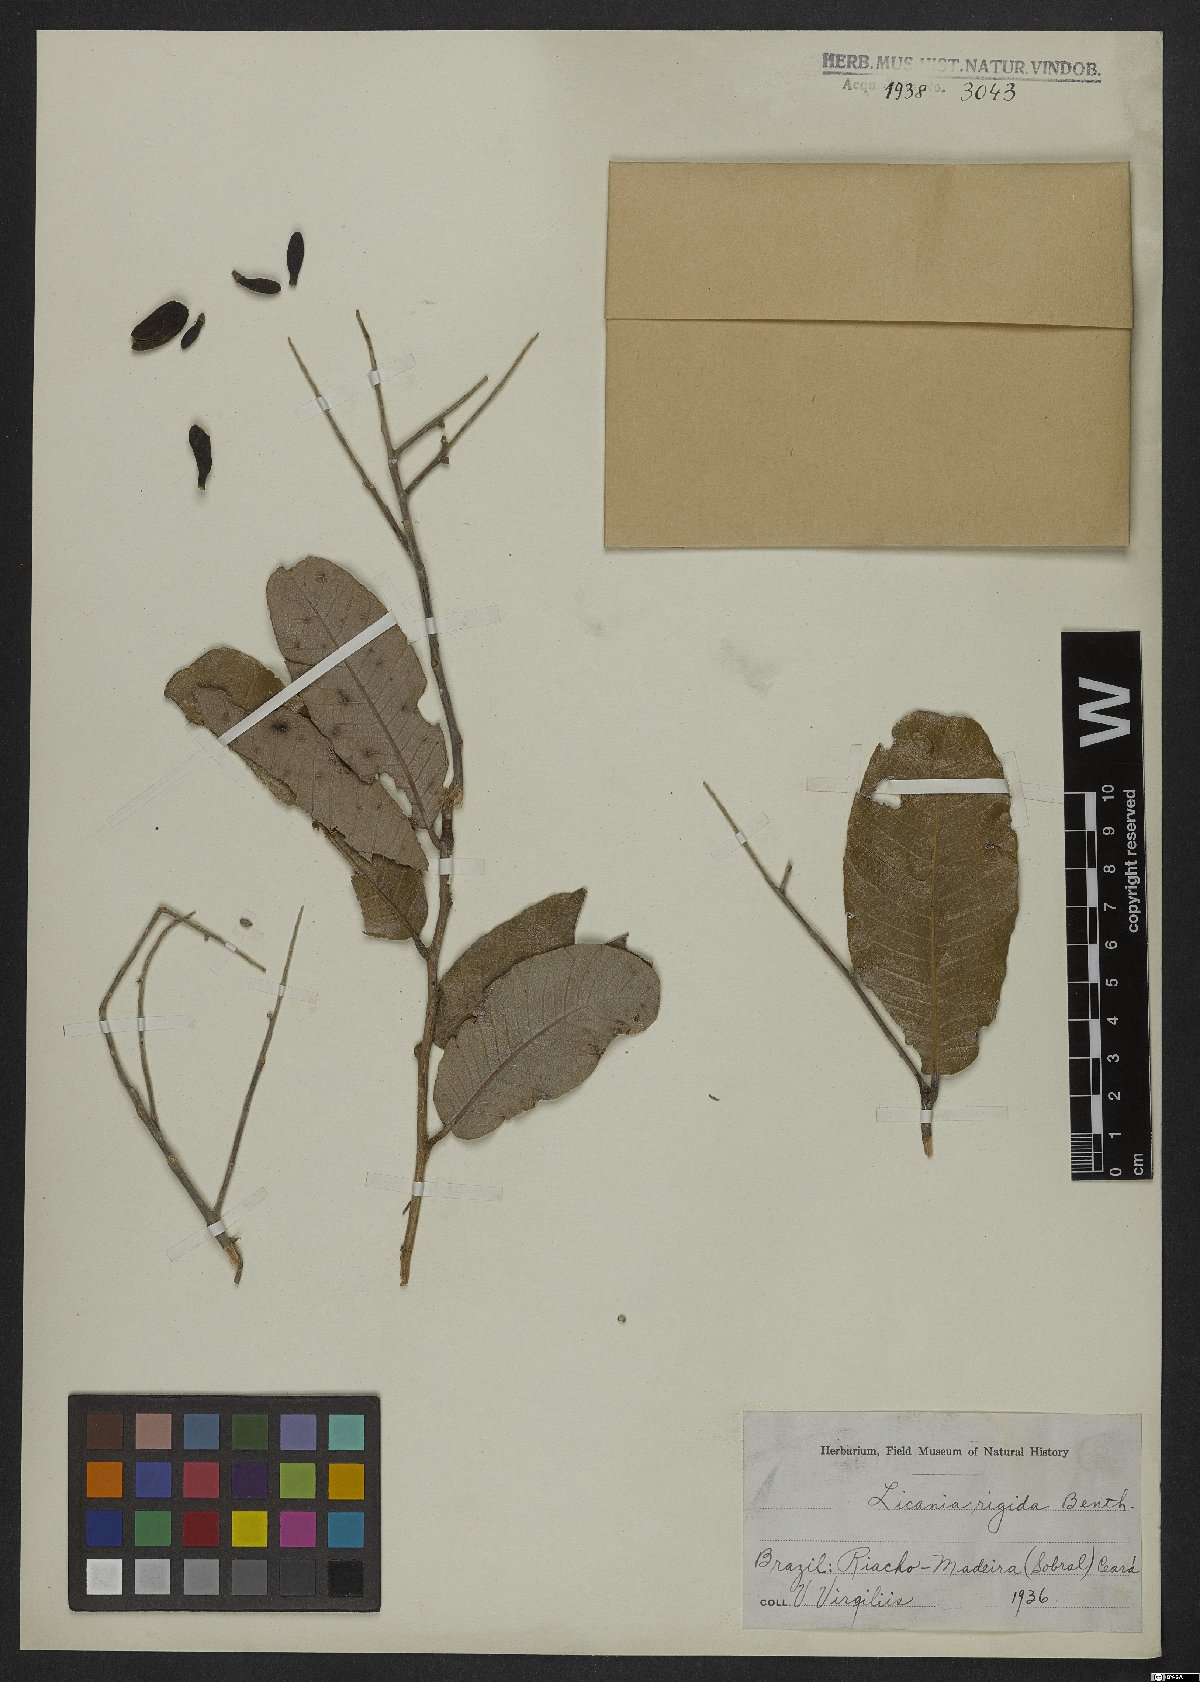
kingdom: Plantae
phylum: Tracheophyta
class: Magnoliopsida
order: Malpighiales
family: Chrysobalanaceae
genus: Microdesmia
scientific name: Microdesmia rigida
